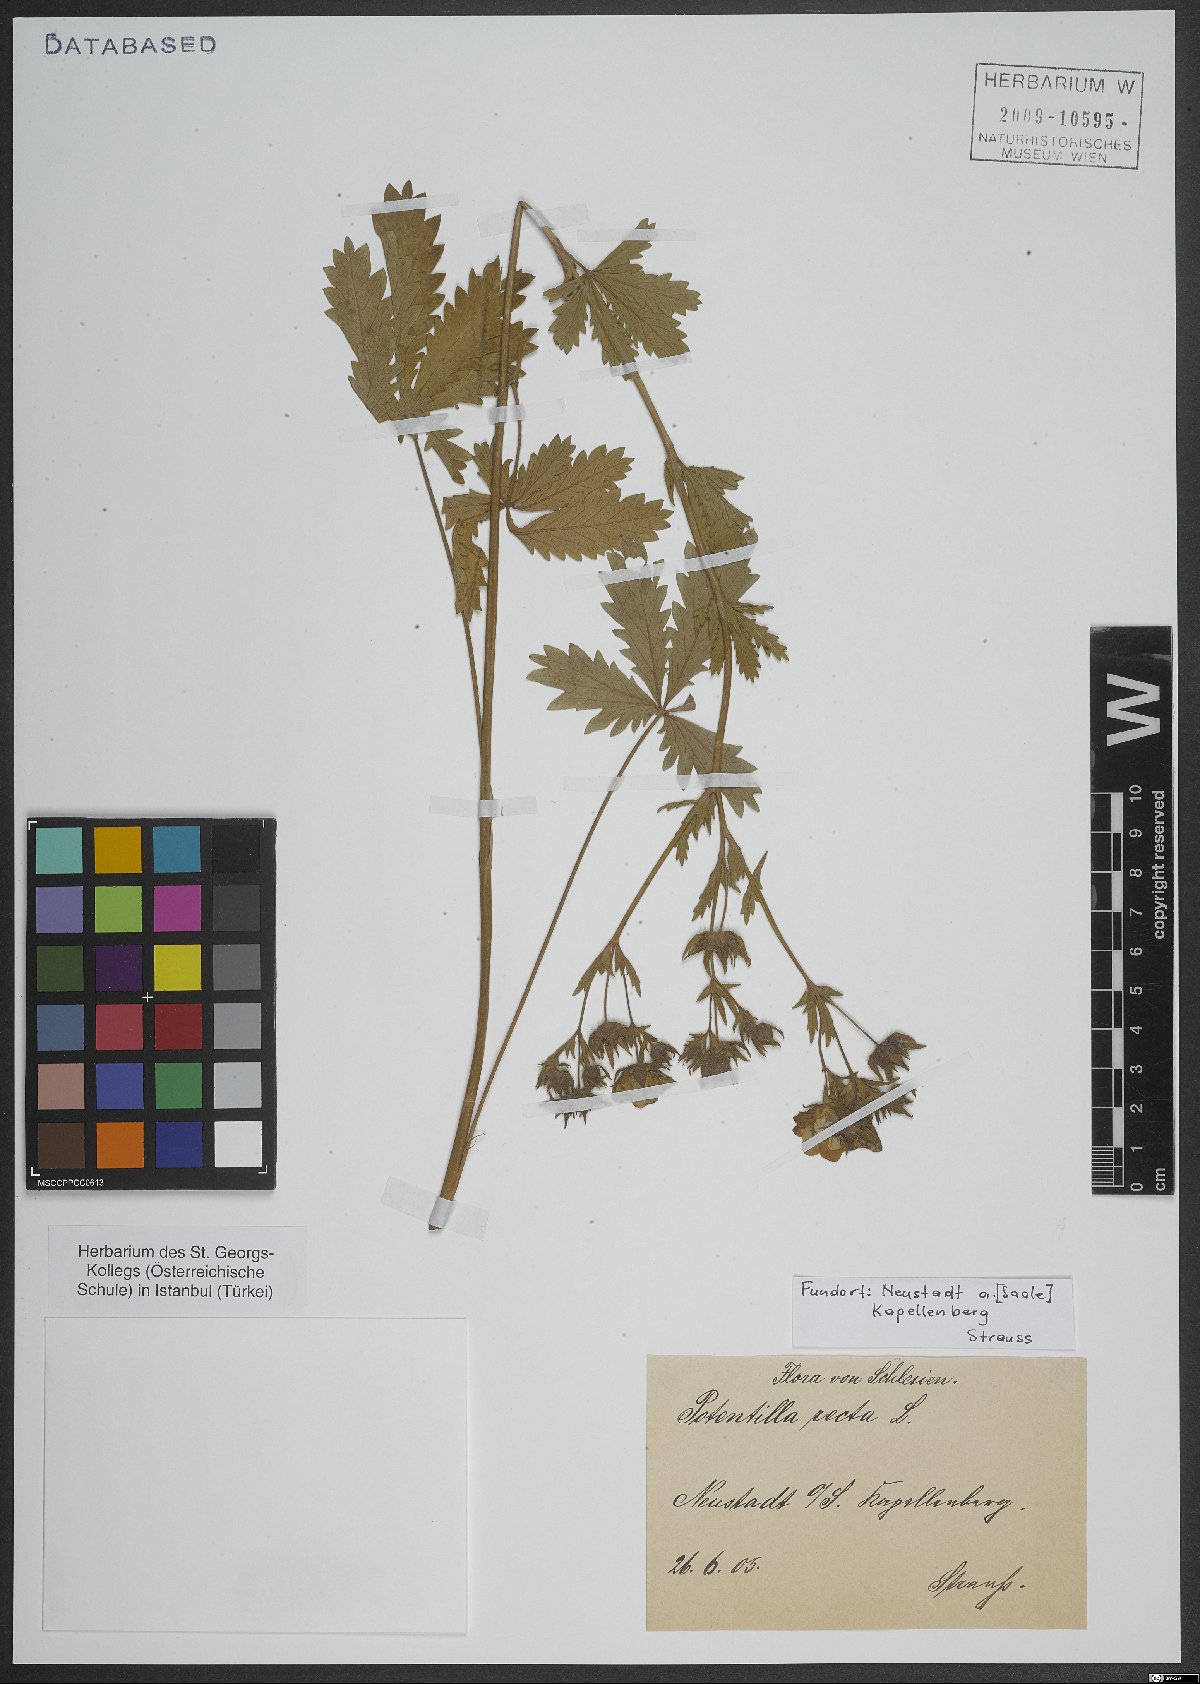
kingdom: Plantae
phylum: Tracheophyta
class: Magnoliopsida
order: Rosales
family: Rosaceae
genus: Potentilla
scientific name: Potentilla recta
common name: Sulphur cinquefoil
